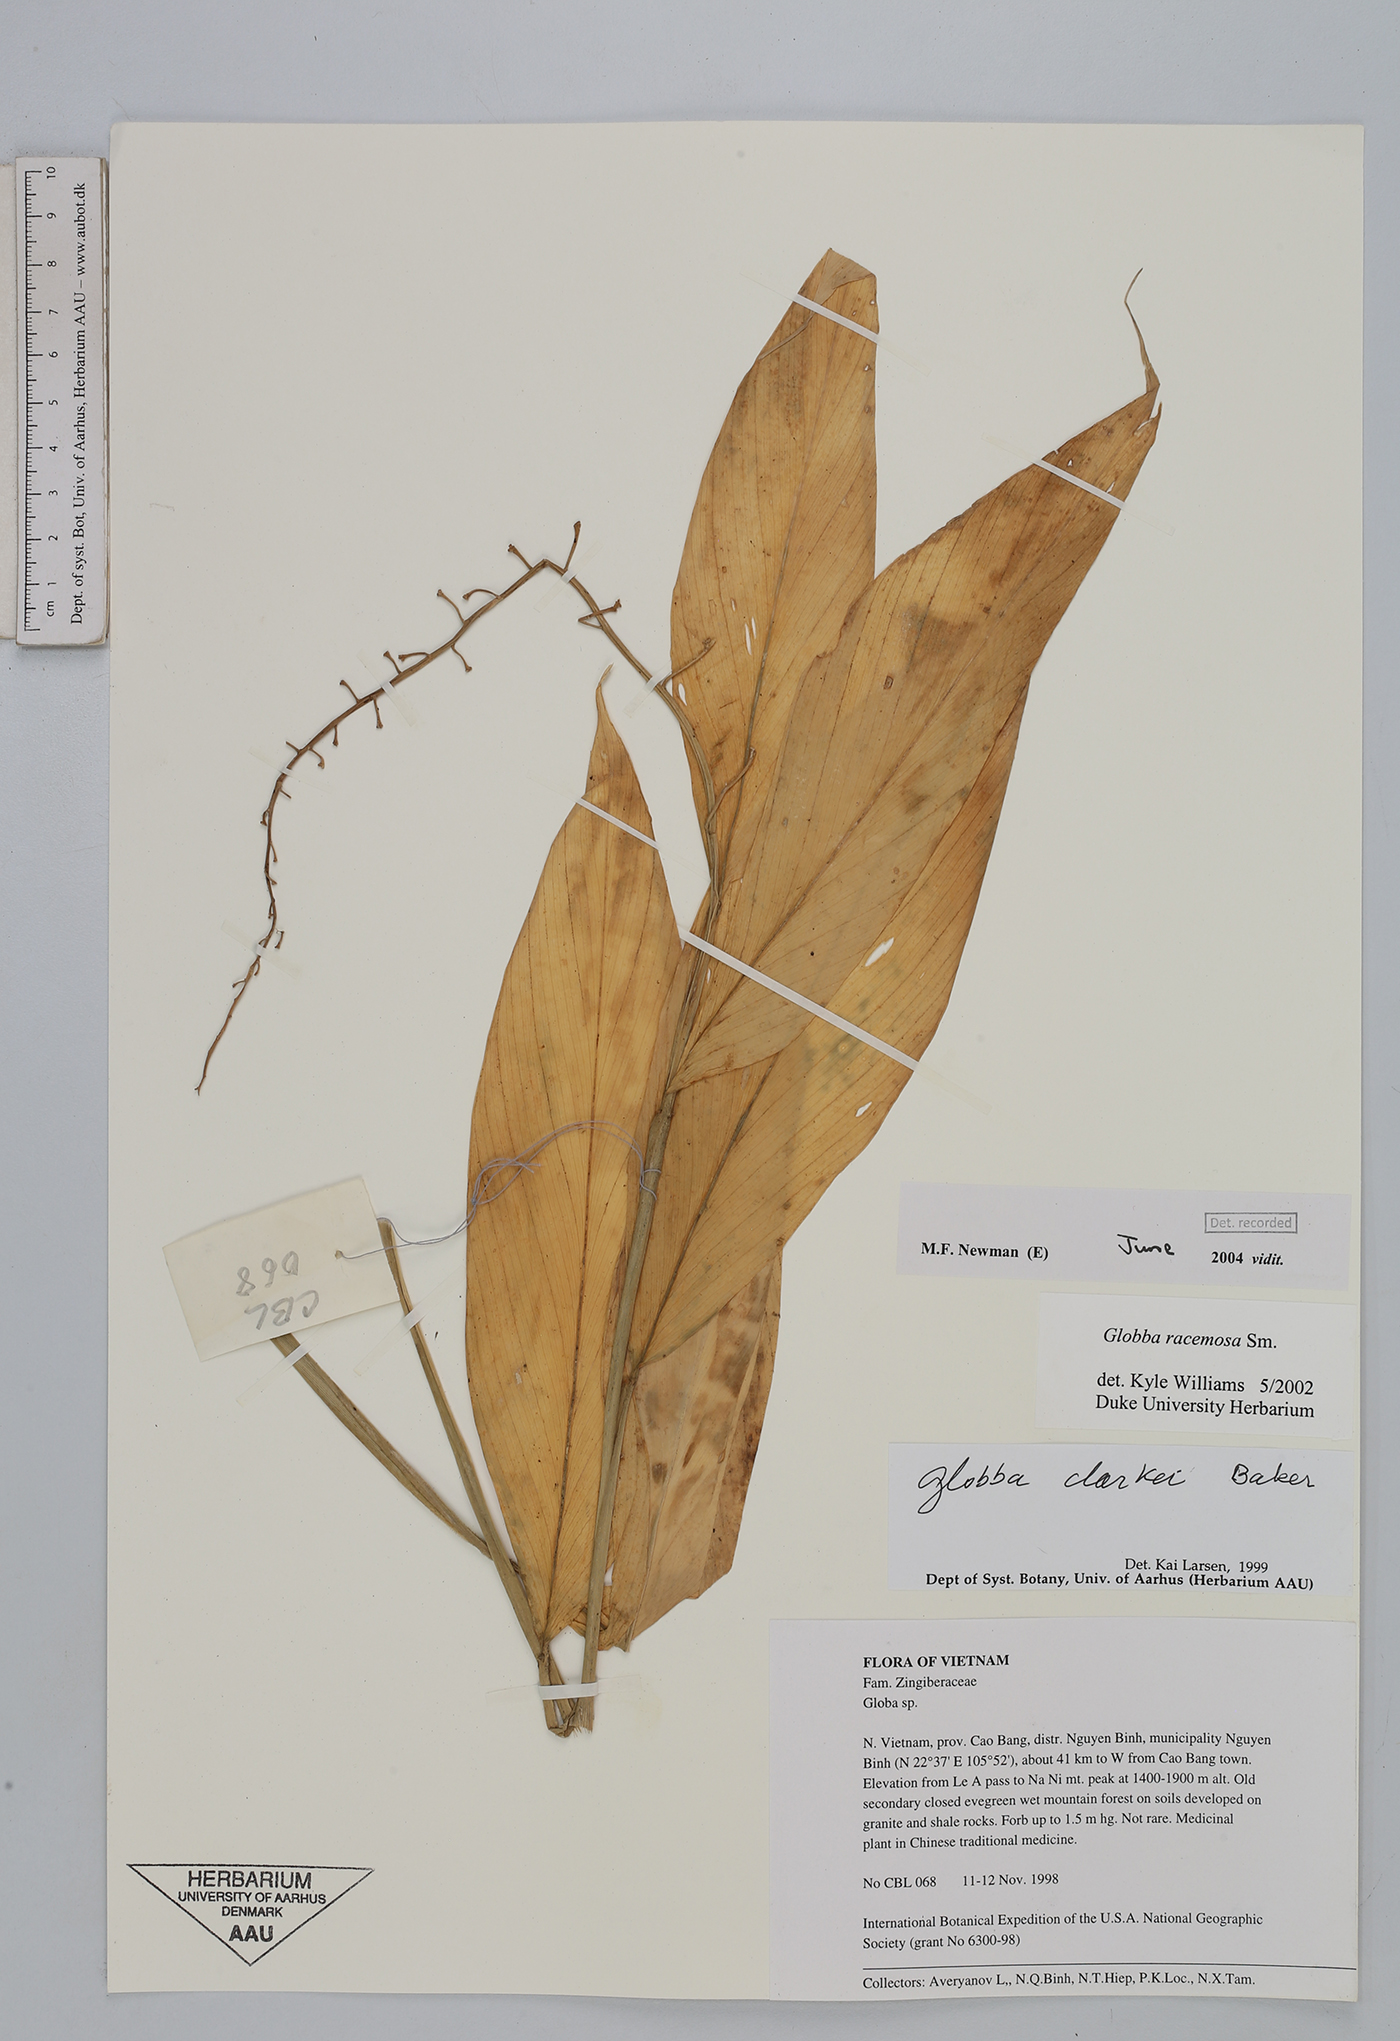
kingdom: Plantae
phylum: Tracheophyta
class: Liliopsida
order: Zingiberales
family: Zingiberaceae
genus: Globba
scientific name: Globba racemosa
